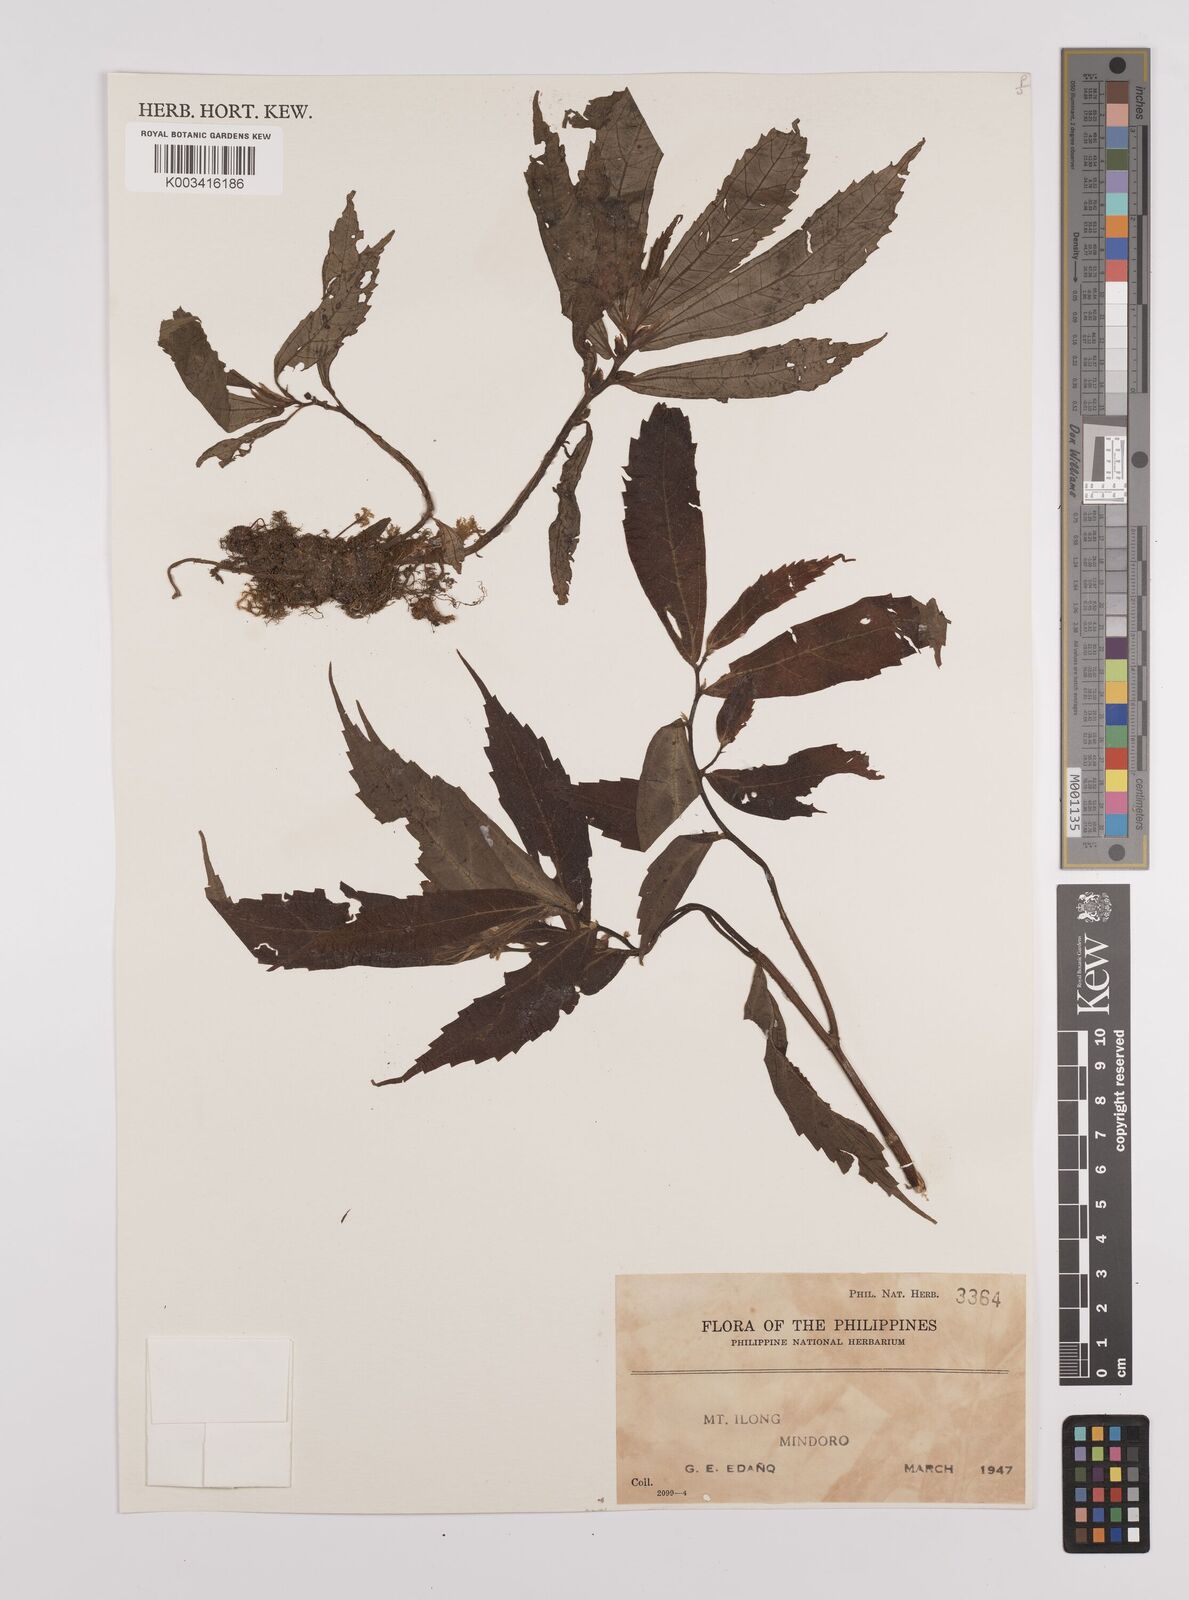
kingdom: Plantae
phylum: Tracheophyta
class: Magnoliopsida
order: Rosales
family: Urticaceae
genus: Elatostema
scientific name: Elatostema
